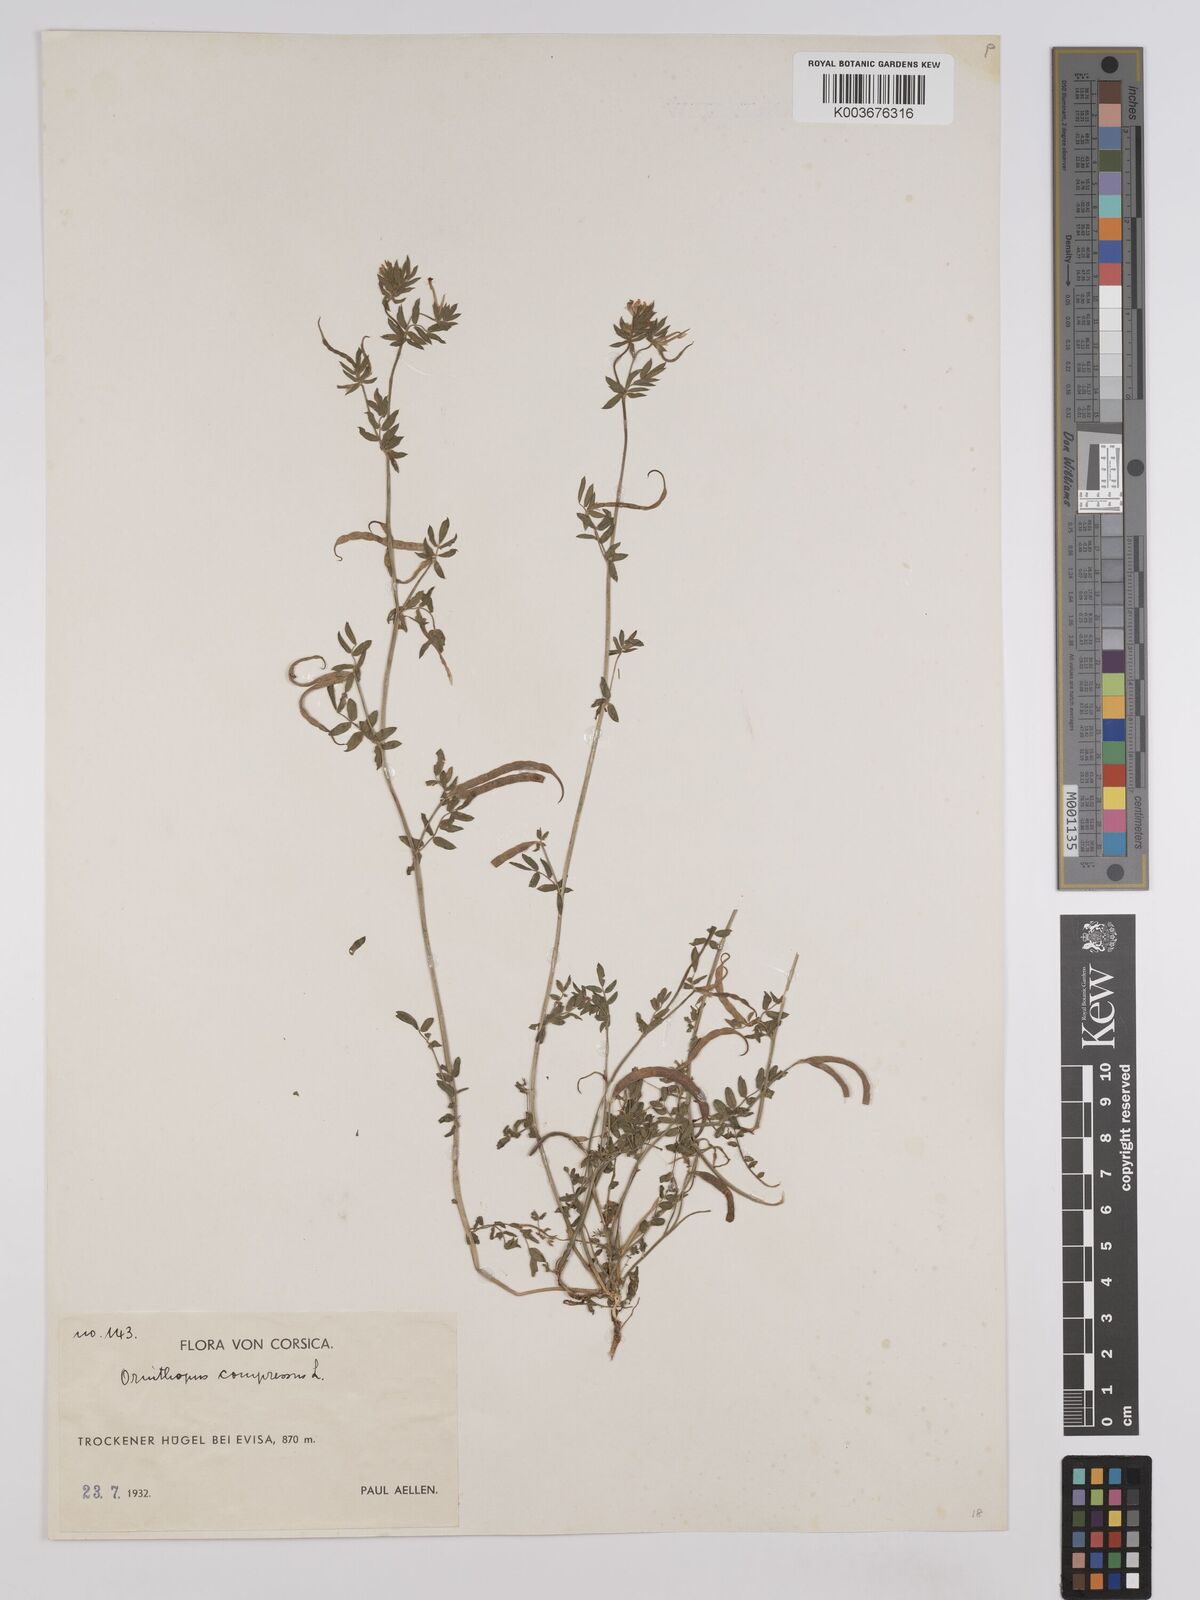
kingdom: Plantae
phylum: Tracheophyta
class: Magnoliopsida
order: Fabales
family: Fabaceae
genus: Ornithopus
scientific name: Ornithopus compressus
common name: Yellow serradella
